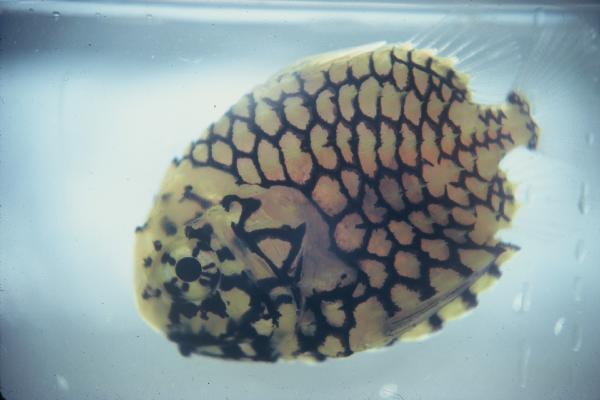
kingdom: Animalia
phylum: Chordata
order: Beryciformes
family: Monocentridae
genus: Monocentris
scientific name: Monocentris japonica
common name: Pineconefish
